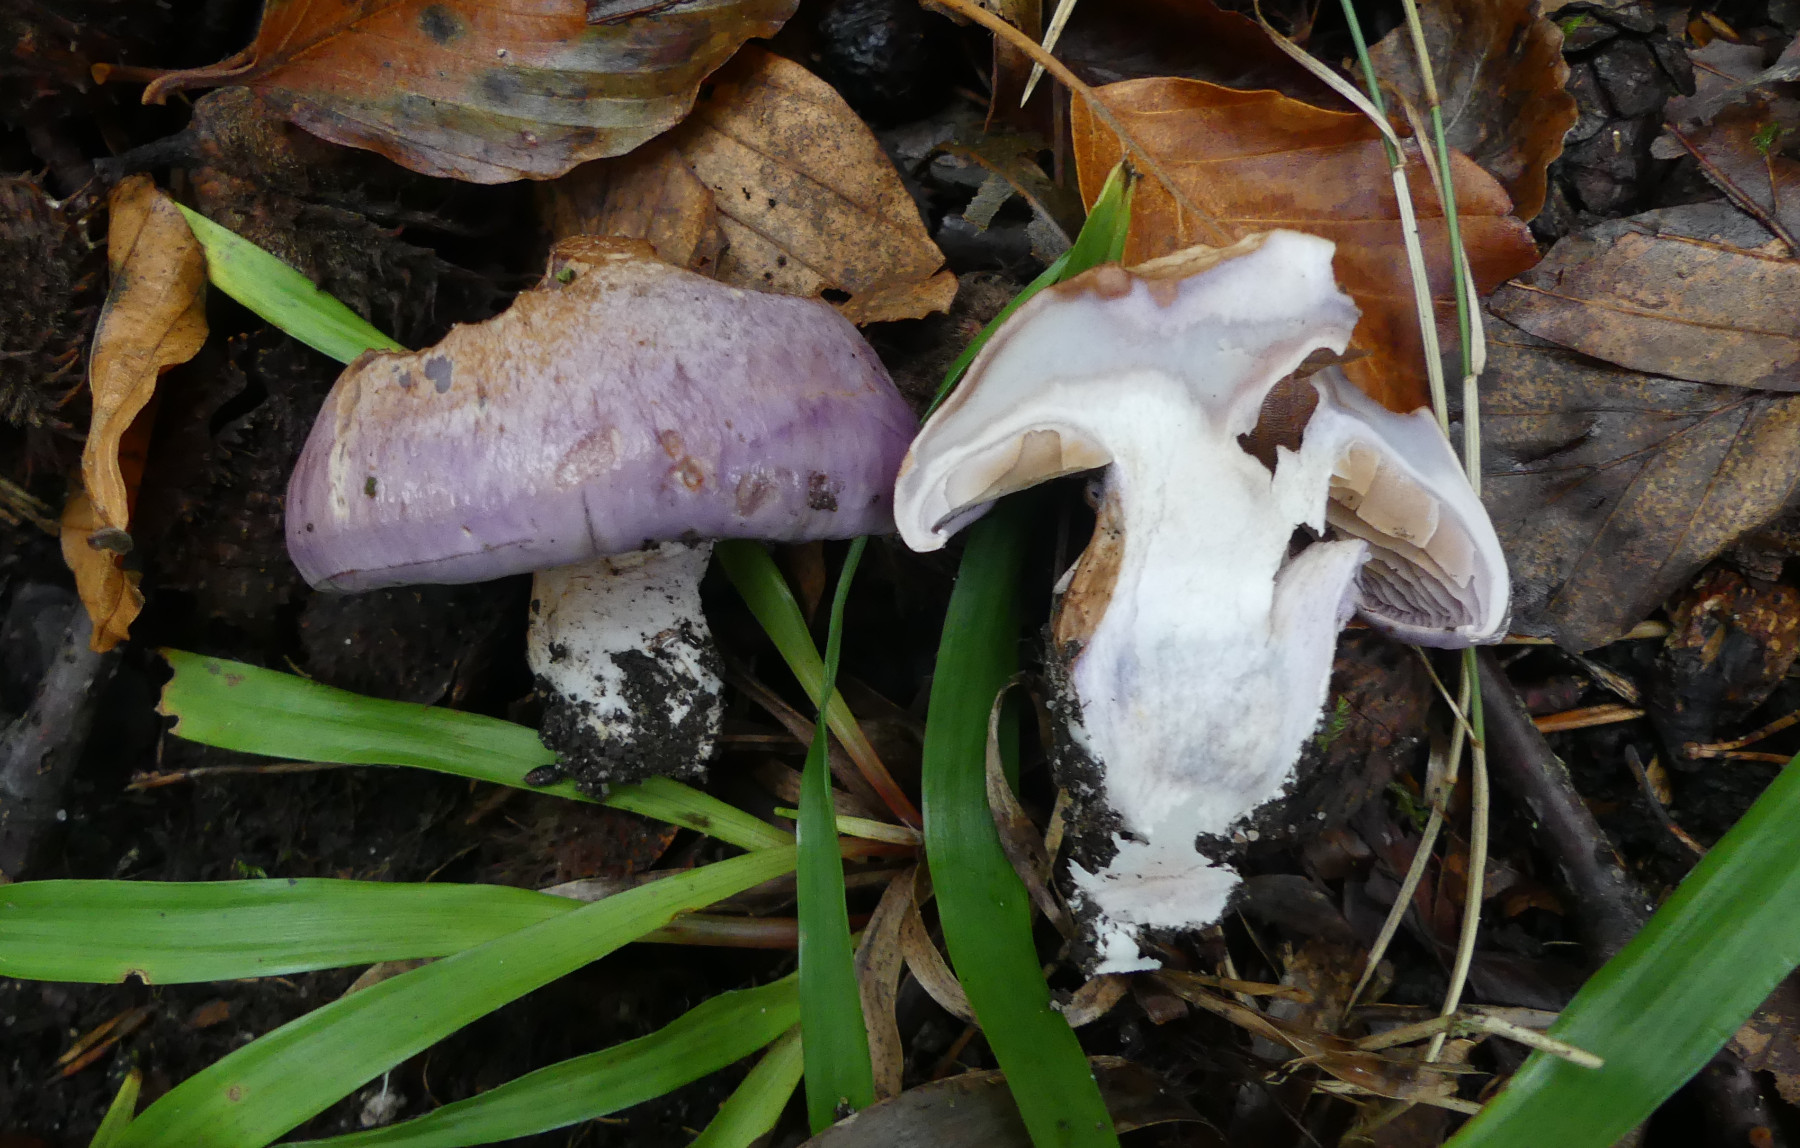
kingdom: Fungi
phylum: Basidiomycota
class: Agaricomycetes
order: Agaricales
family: Cortinariaceae
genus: Cortinarius
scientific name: Cortinarius largus
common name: violetrandet slørhat
